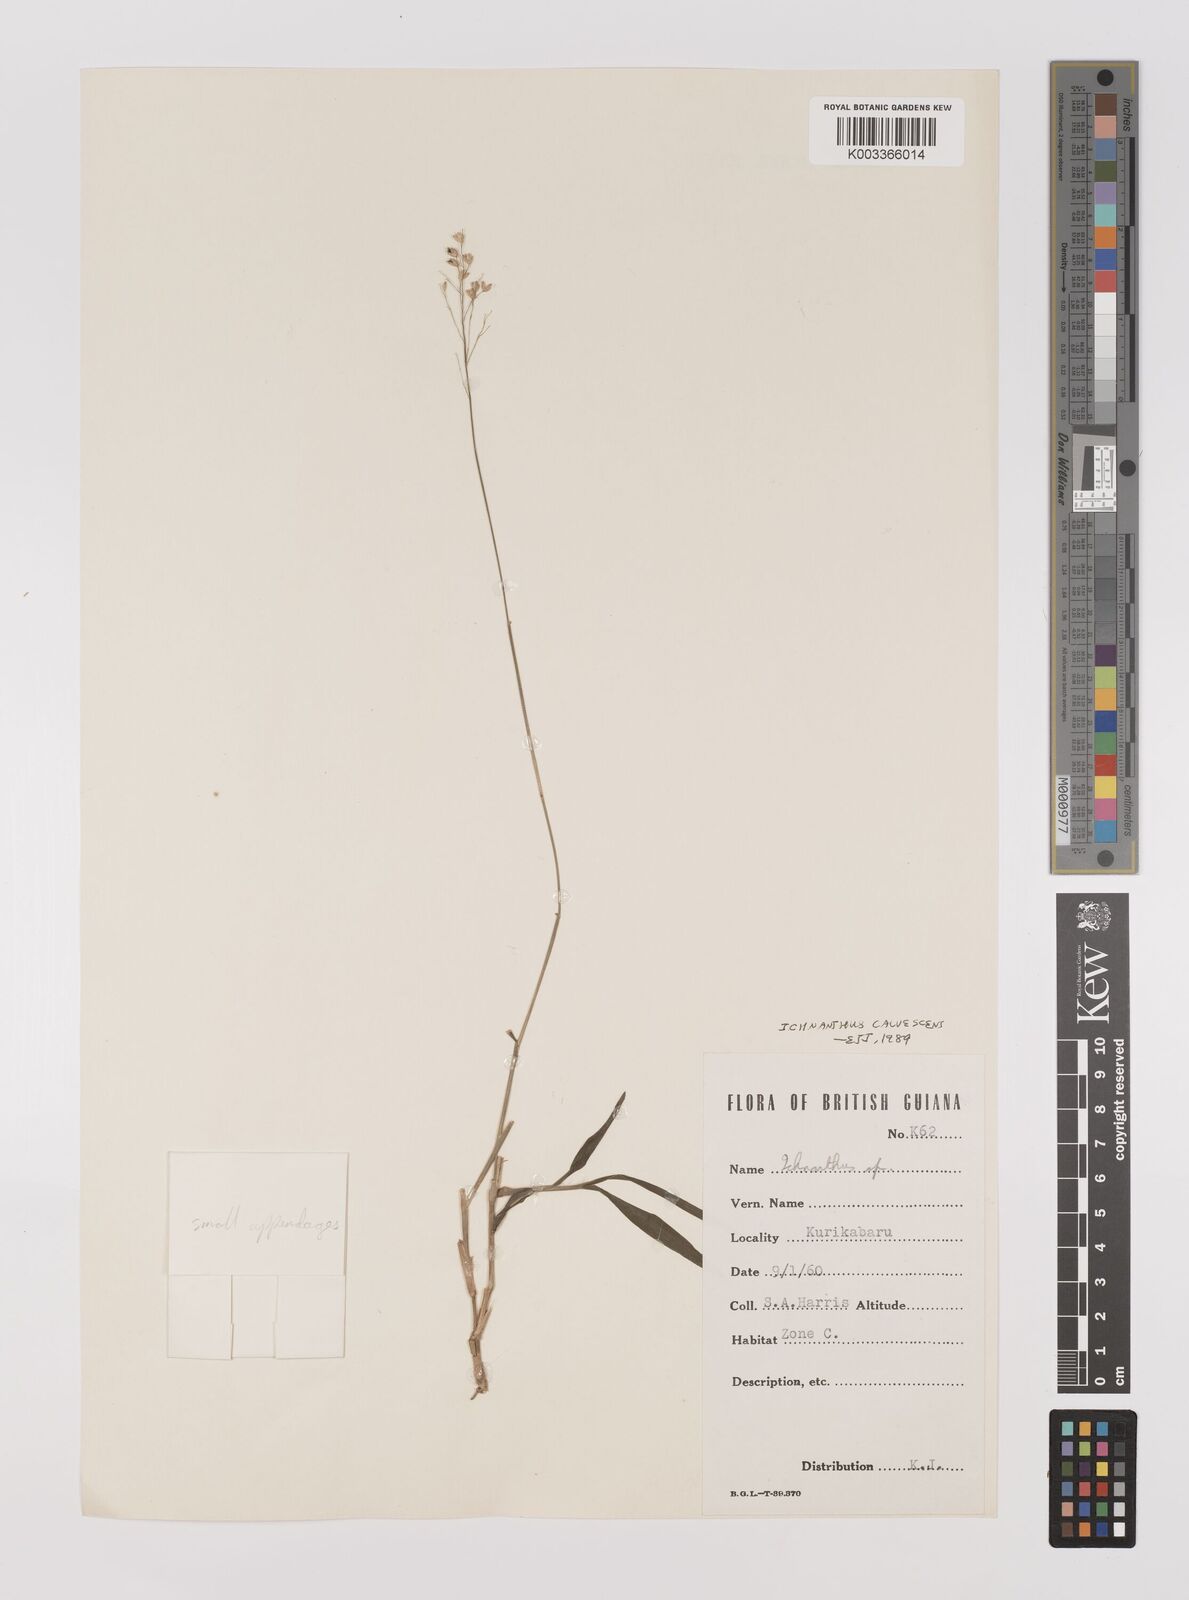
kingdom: Plantae
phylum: Tracheophyta
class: Liliopsida
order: Poales
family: Poaceae
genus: Ichnanthus
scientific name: Ichnanthus calvescens
